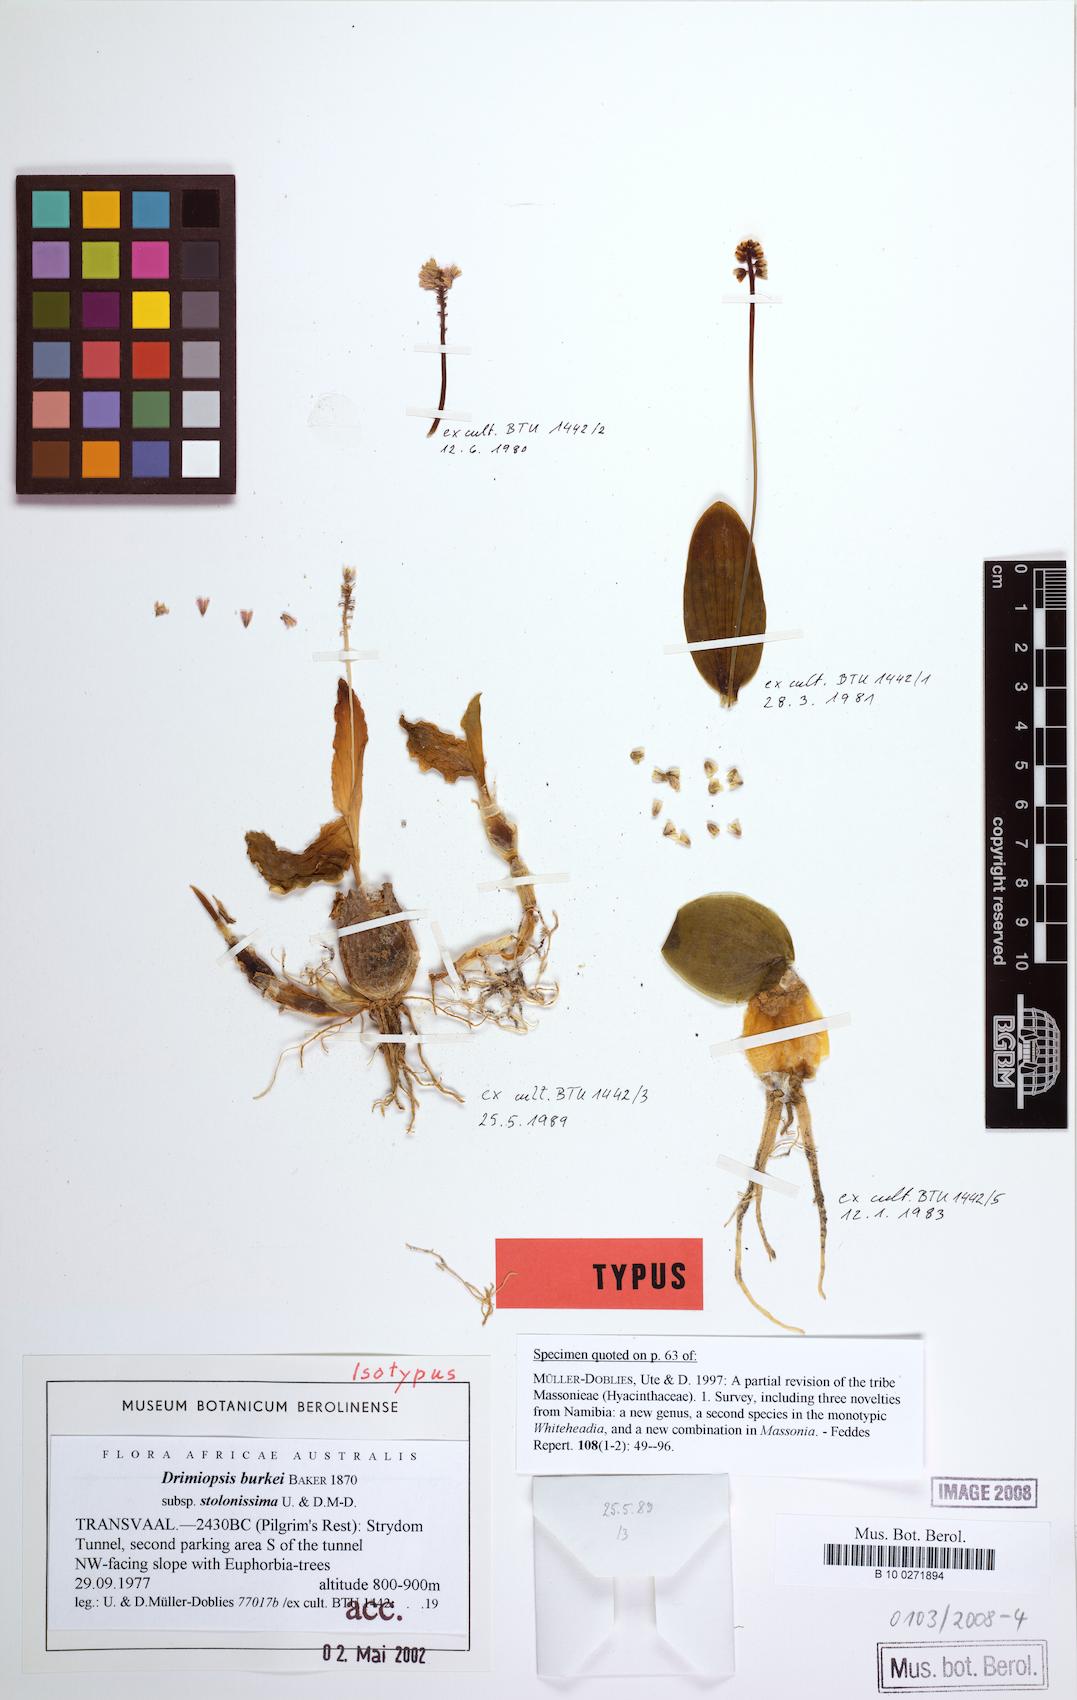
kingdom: Plantae
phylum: Tracheophyta
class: Liliopsida
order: Asparagales
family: Asparagaceae
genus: Drimiopsis
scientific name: Drimiopsis burkei
